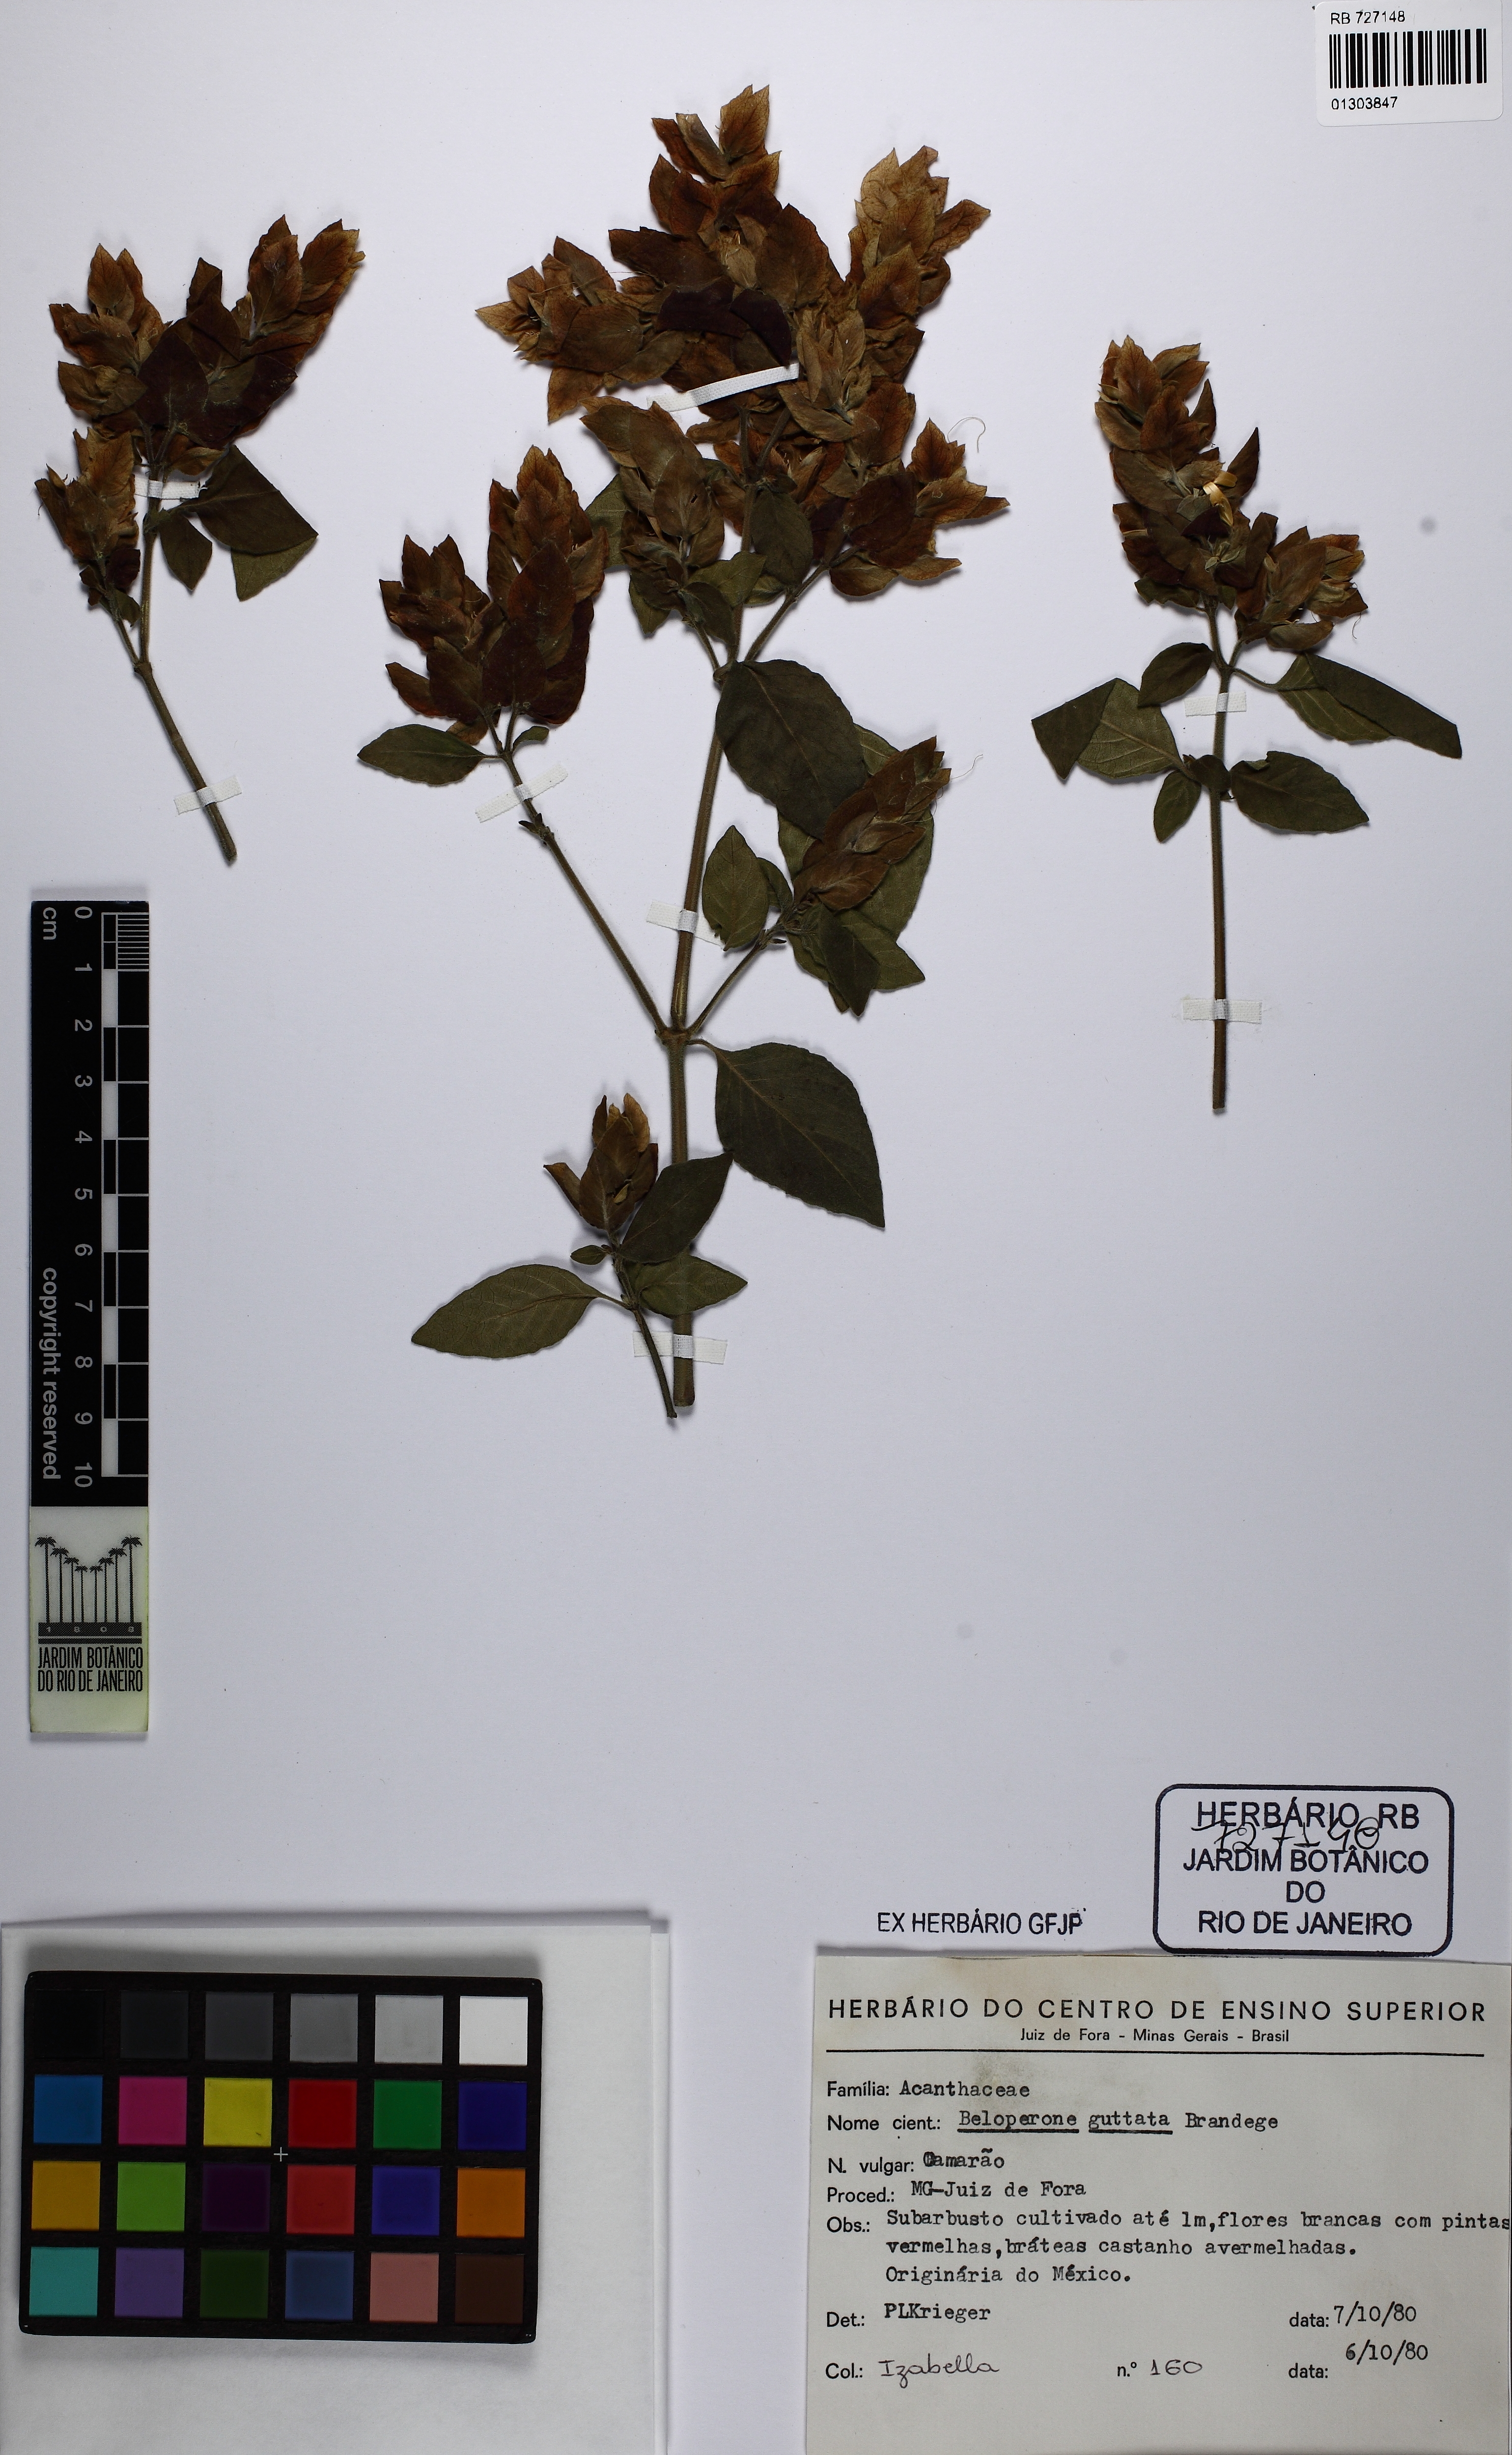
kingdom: Plantae
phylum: Tracheophyta
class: Magnoliopsida
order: Lamiales
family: Acanthaceae
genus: Justicia
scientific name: Justicia brandegeeana
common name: Shrimpplant
